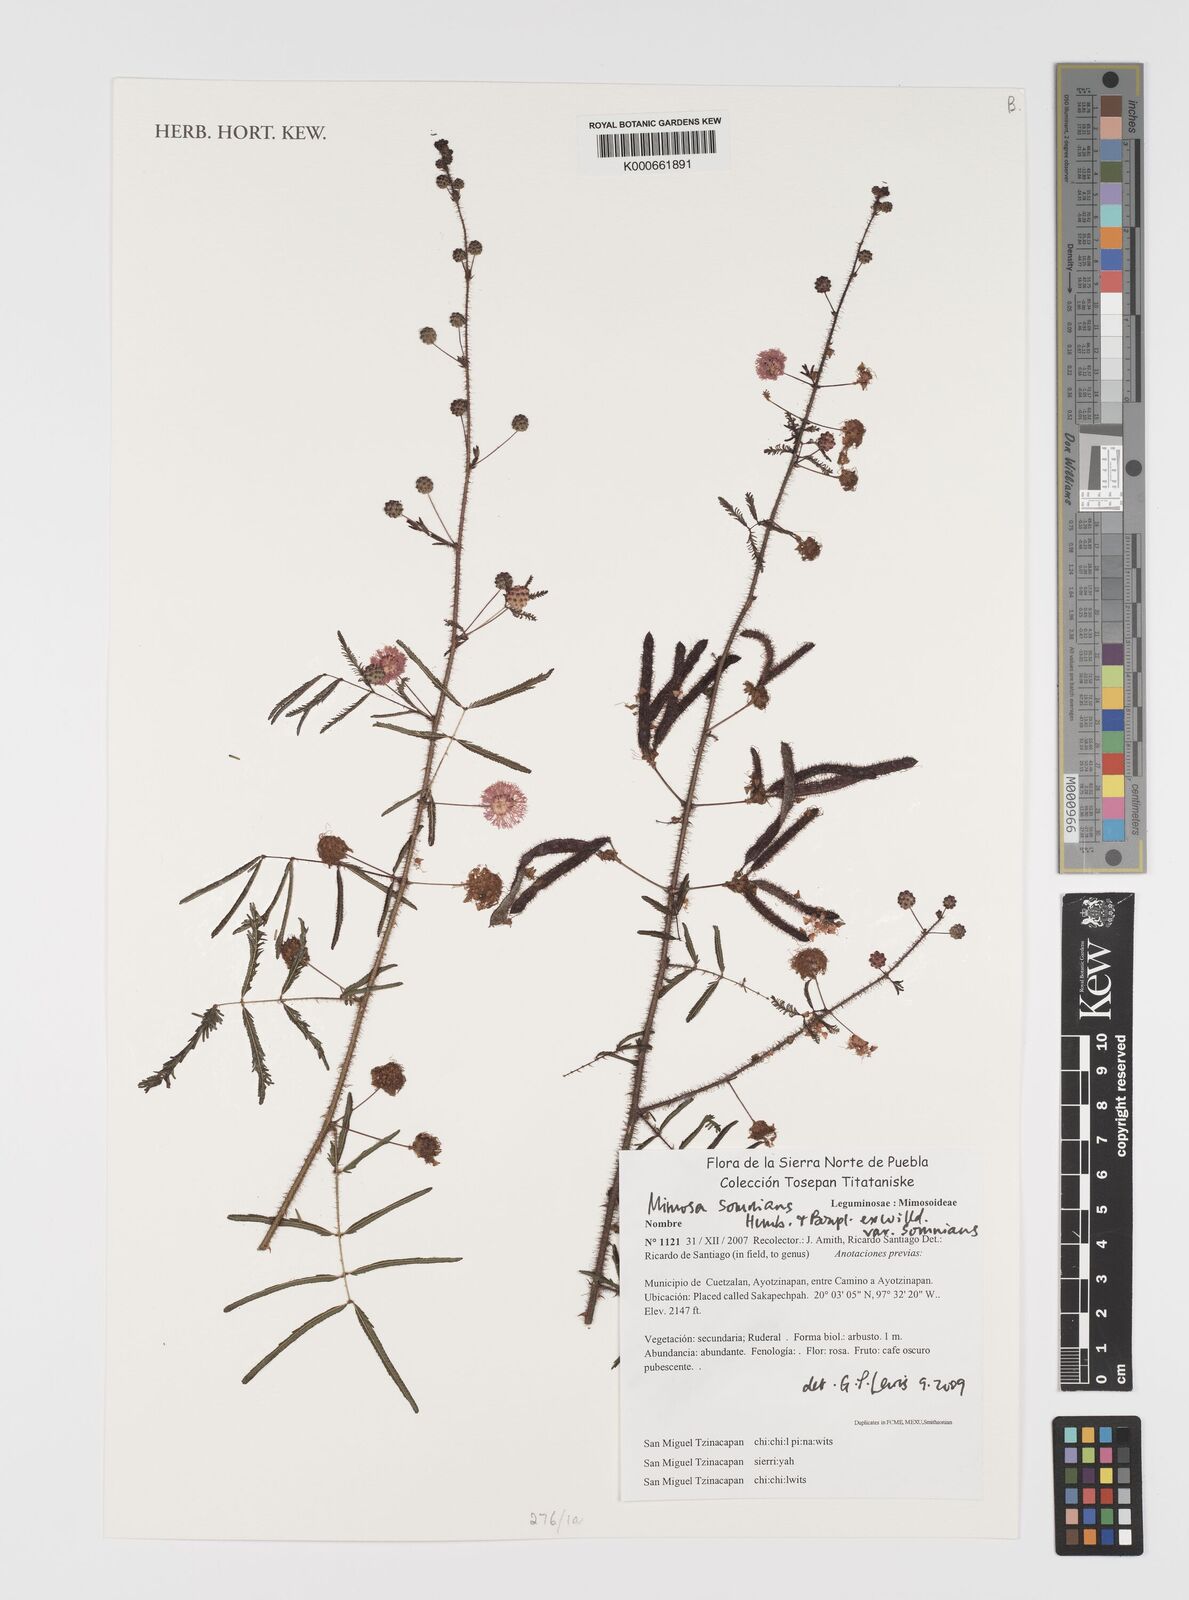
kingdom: Plantae
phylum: Tracheophyta
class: Magnoliopsida
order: Fabales
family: Fabaceae
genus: Mimosa
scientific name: Mimosa somnians
